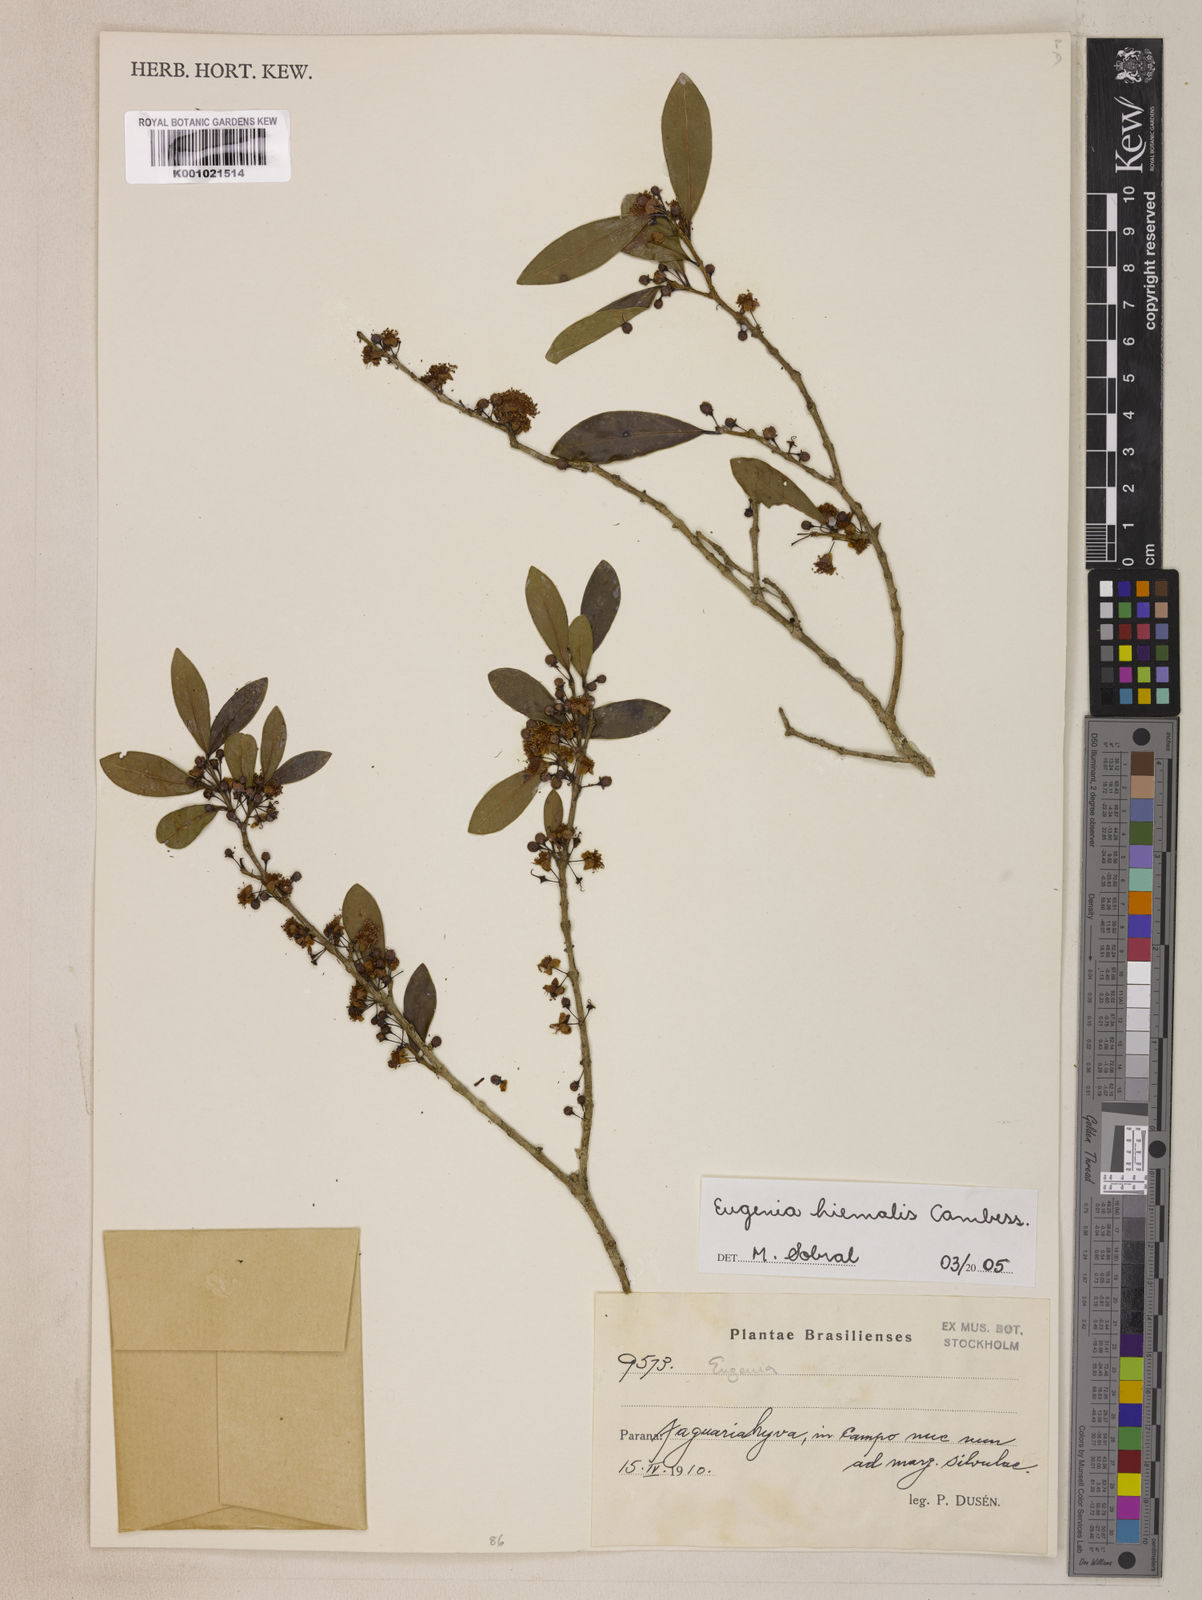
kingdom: Plantae
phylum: Tracheophyta
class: Magnoliopsida
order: Myrtales
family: Myrtaceae
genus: Eugenia
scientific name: Eugenia hiemalis
